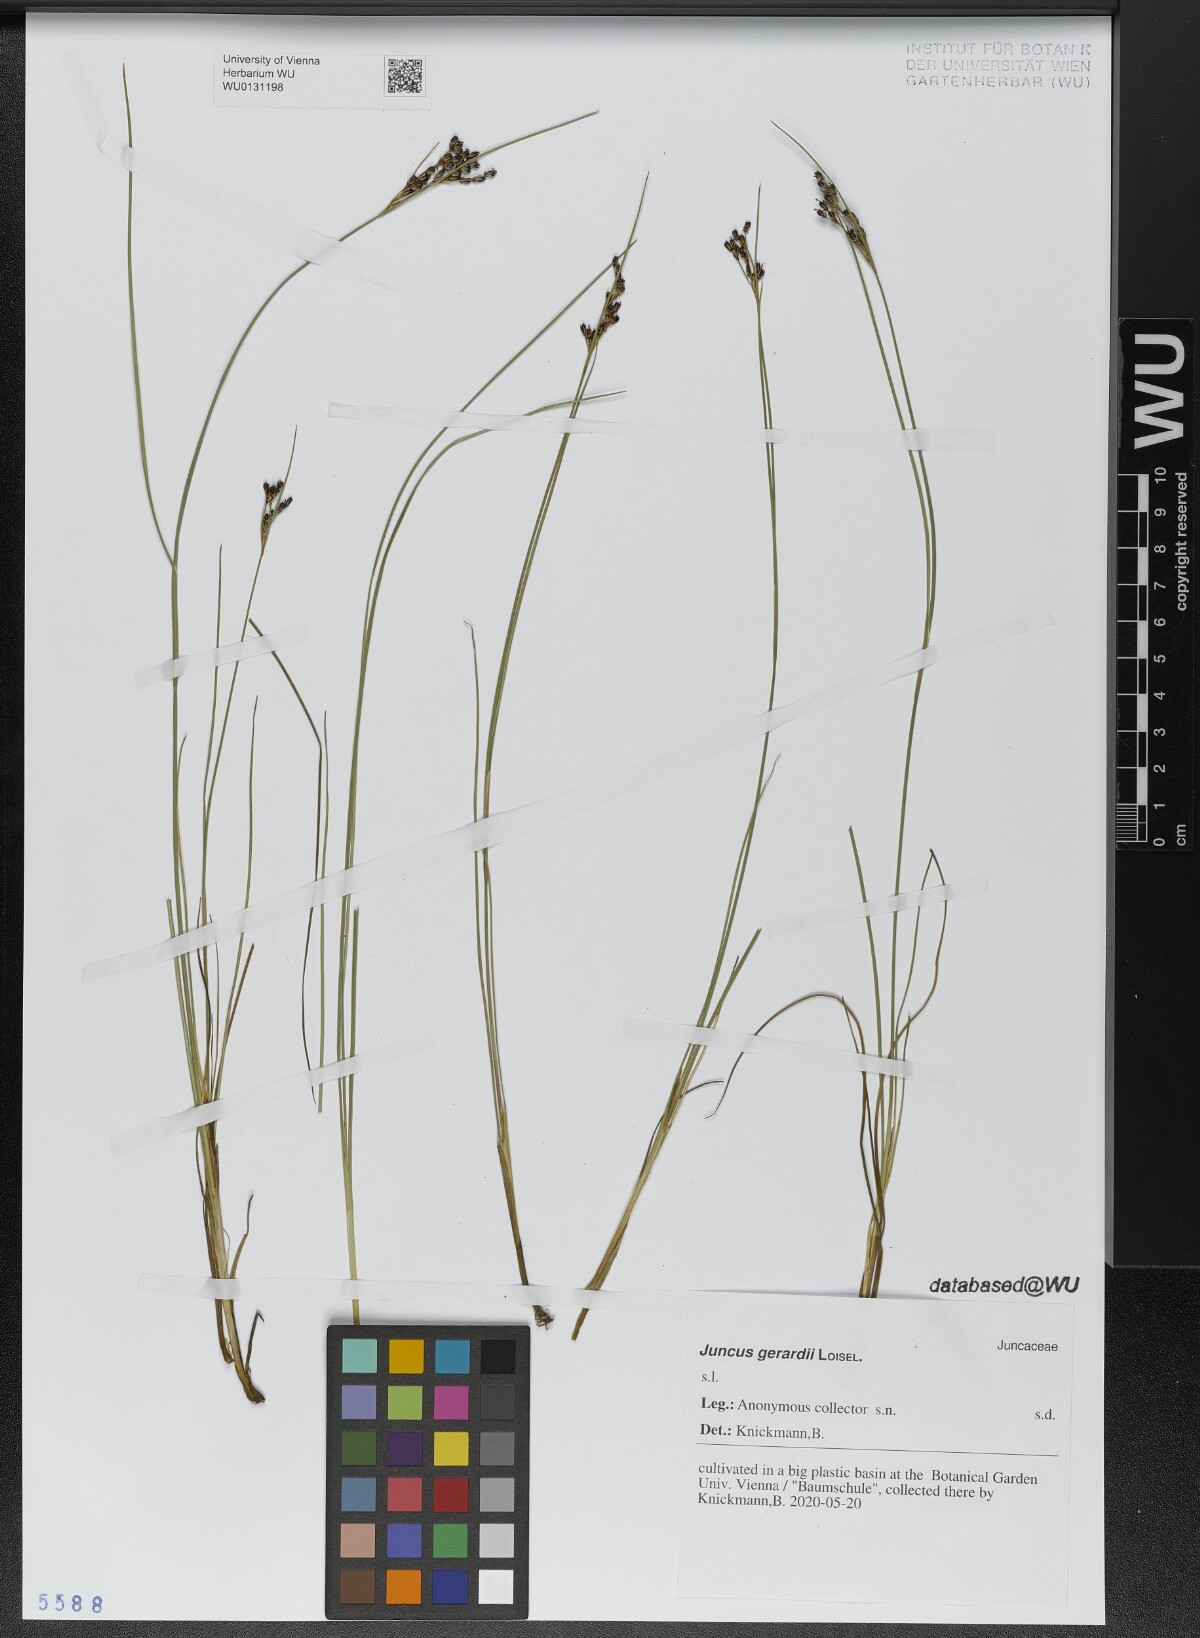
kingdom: Plantae
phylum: Tracheophyta
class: Liliopsida
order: Poales
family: Juncaceae
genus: Juncus
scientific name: Juncus gerardi
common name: Saltmarsh rush
